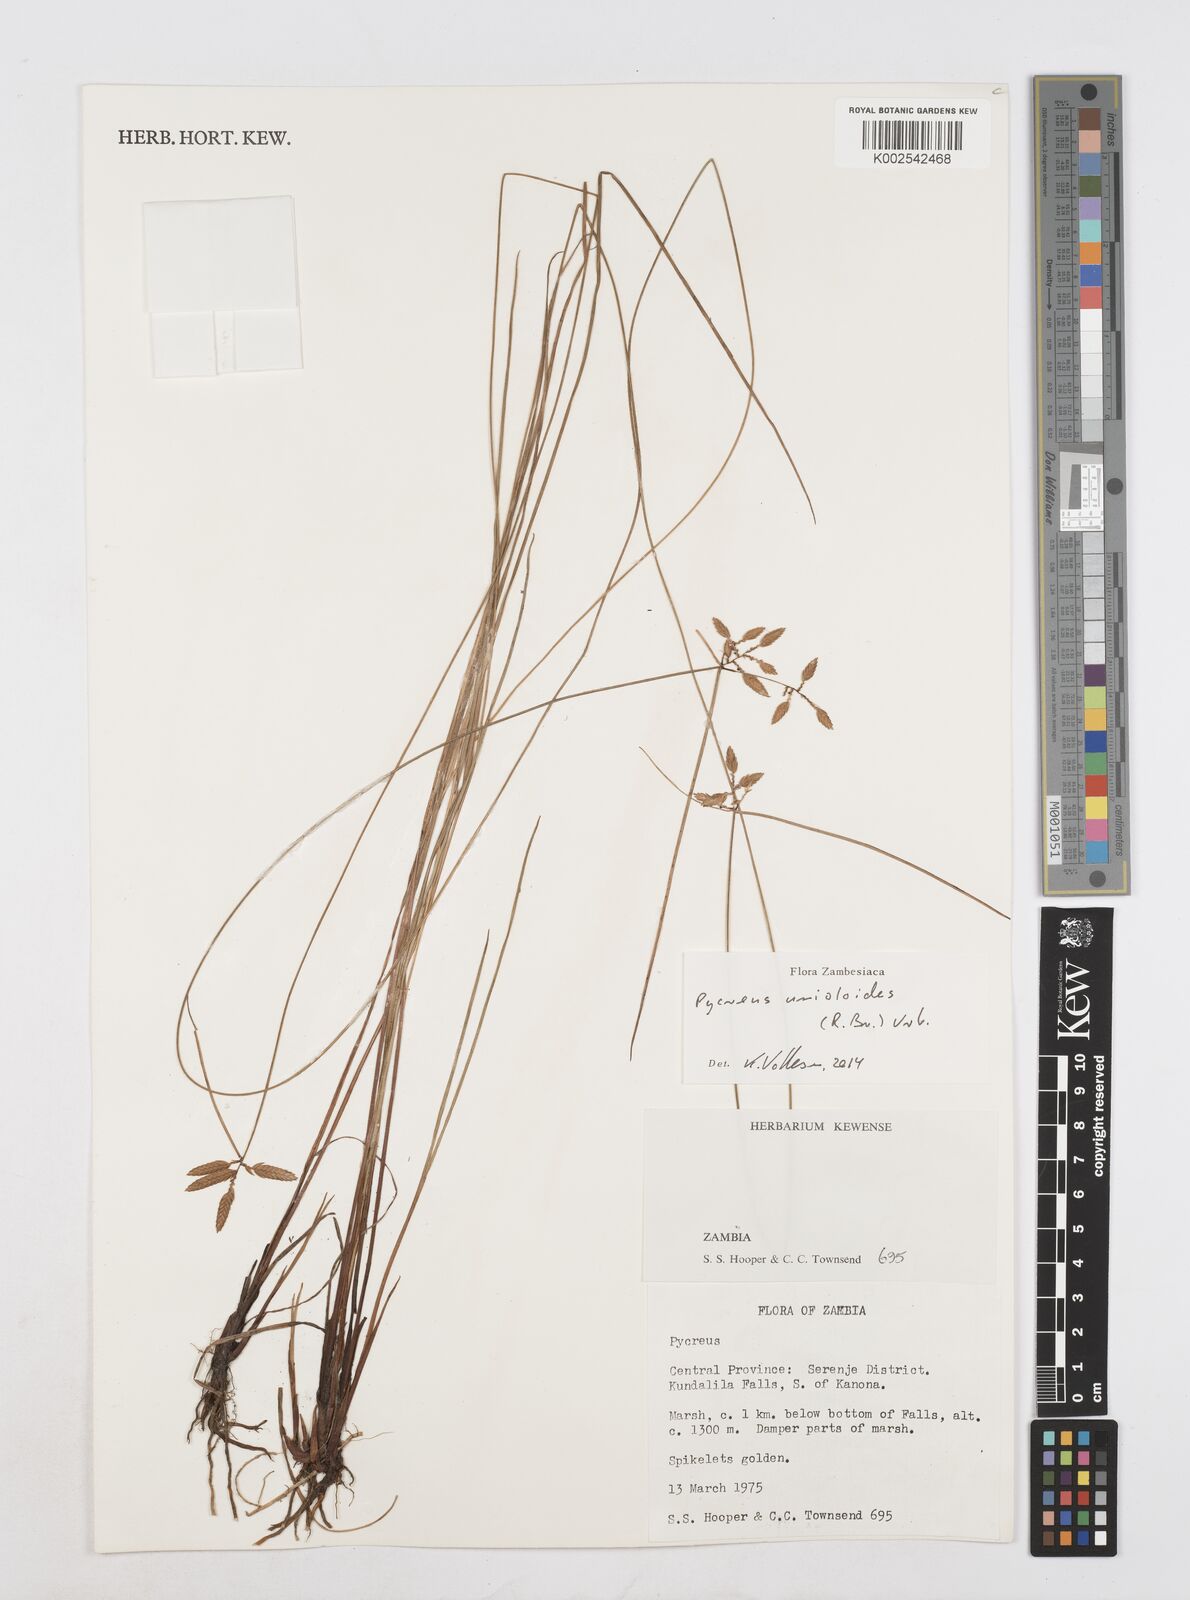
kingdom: Plantae
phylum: Tracheophyta
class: Liliopsida
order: Poales
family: Cyperaceae
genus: Cyperus
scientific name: Cyperus unioloides
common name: Uniola flatsedge
